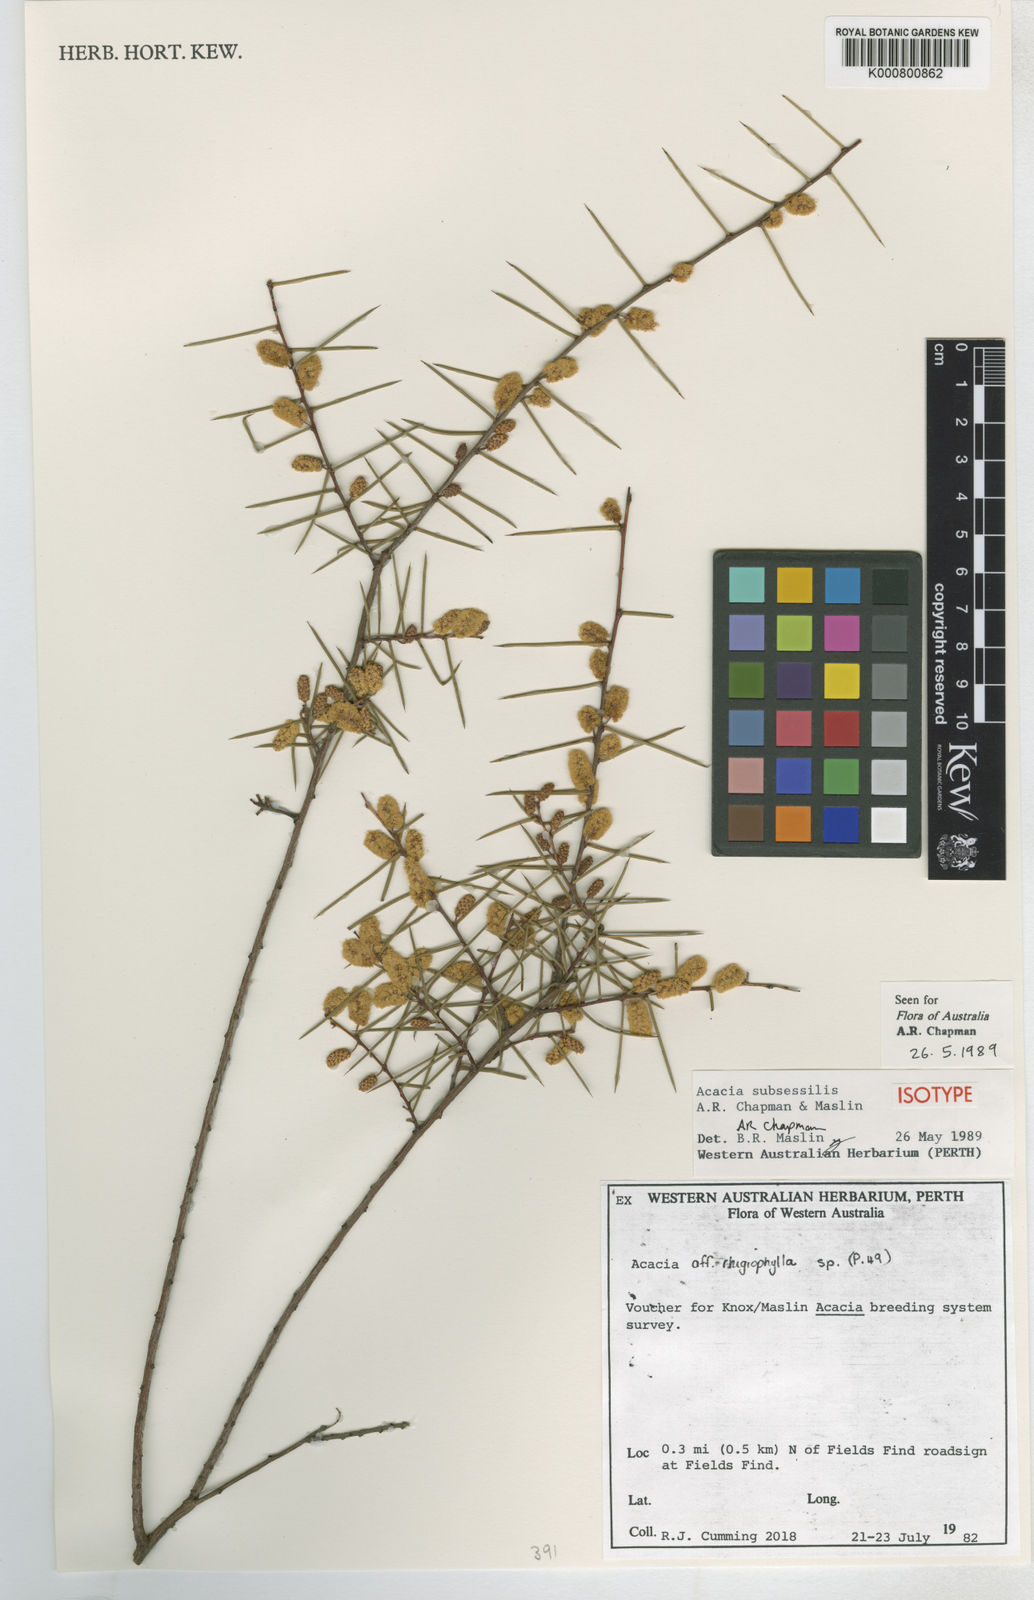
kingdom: Plantae
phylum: Tracheophyta
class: Magnoliopsida
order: Fabales
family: Fabaceae
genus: Acacia
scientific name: Acacia subsessilis
